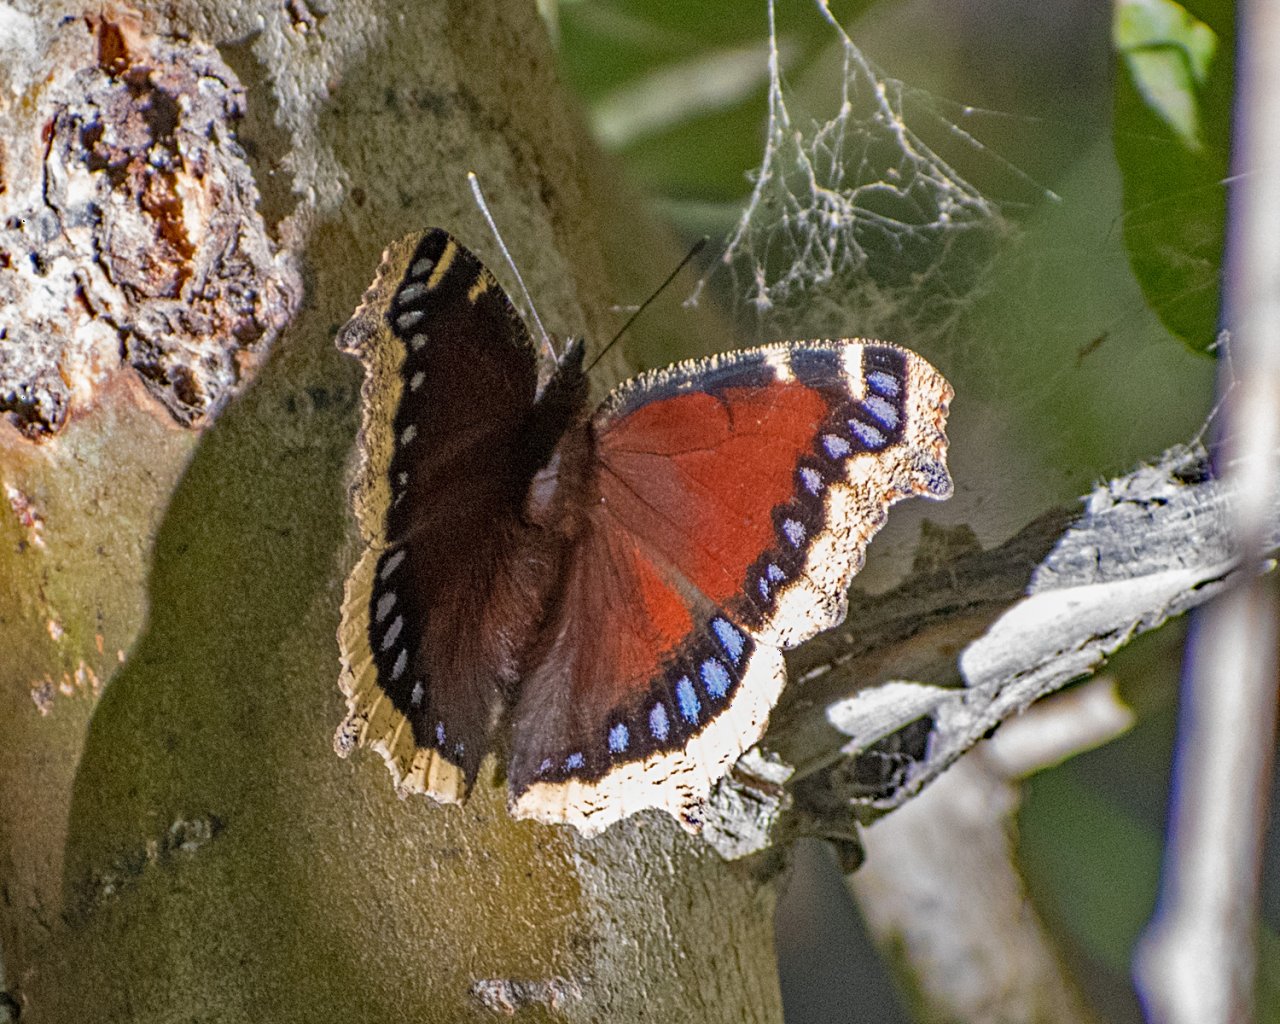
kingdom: Animalia
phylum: Arthropoda
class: Insecta
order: Lepidoptera
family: Nymphalidae
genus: Nymphalis
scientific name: Nymphalis antiopa
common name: Mourning Cloak
